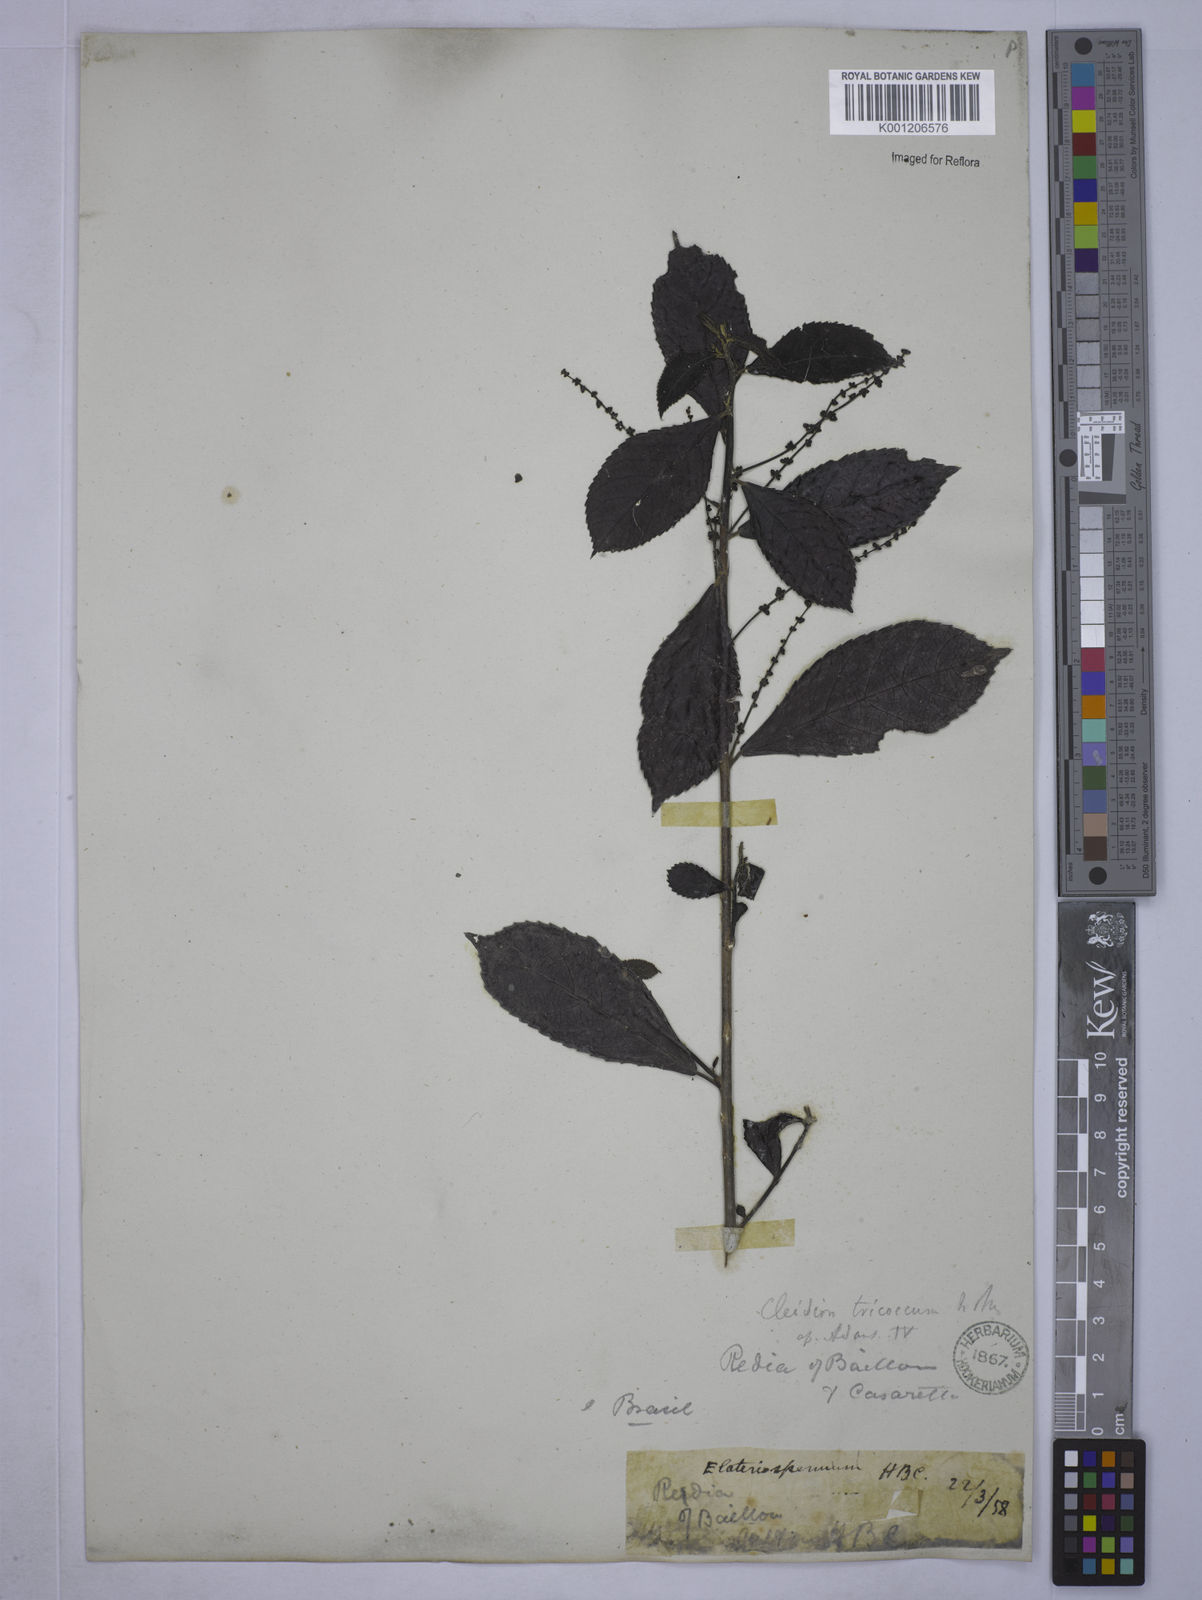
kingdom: Plantae
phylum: Tracheophyta
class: Magnoliopsida
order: Malpighiales
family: Euphorbiaceae
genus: Cleidion
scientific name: Cleidion tricoccum
